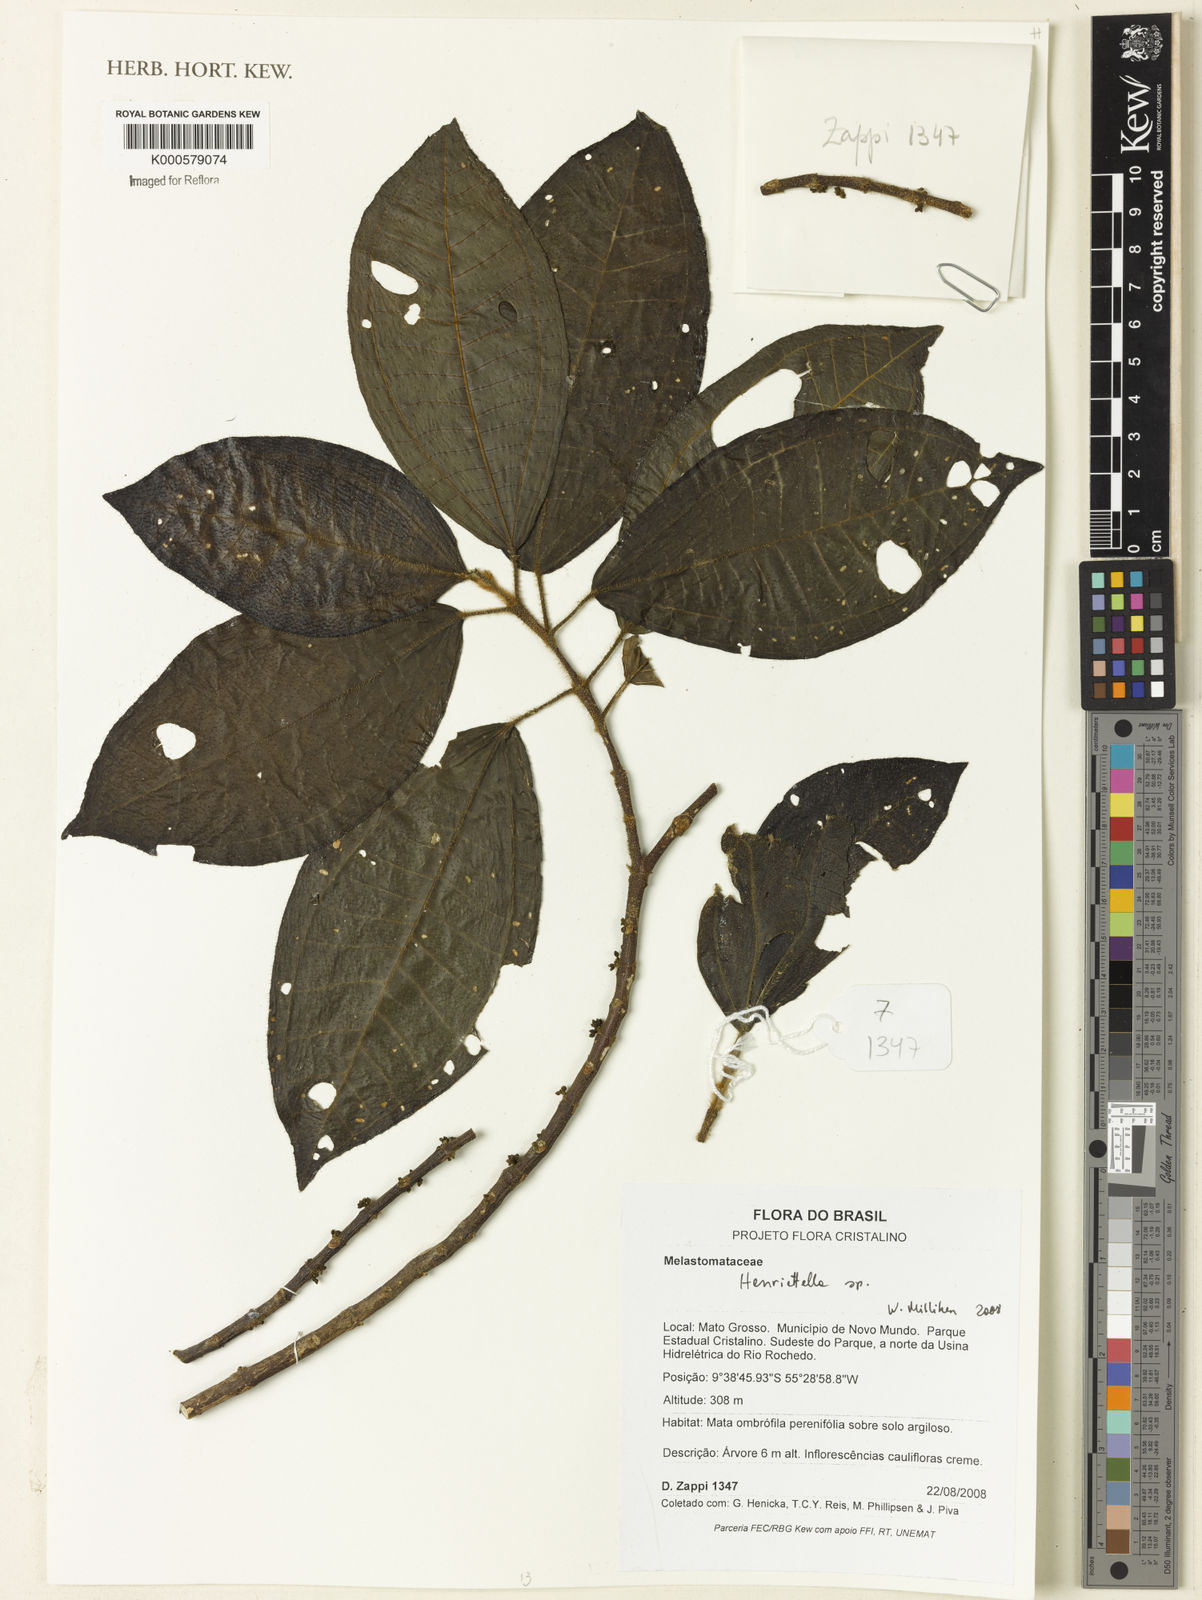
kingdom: Plantae
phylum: Tracheophyta
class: Magnoliopsida
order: Myrtales
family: Melastomataceae
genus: Henriettea
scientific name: Henriettea
